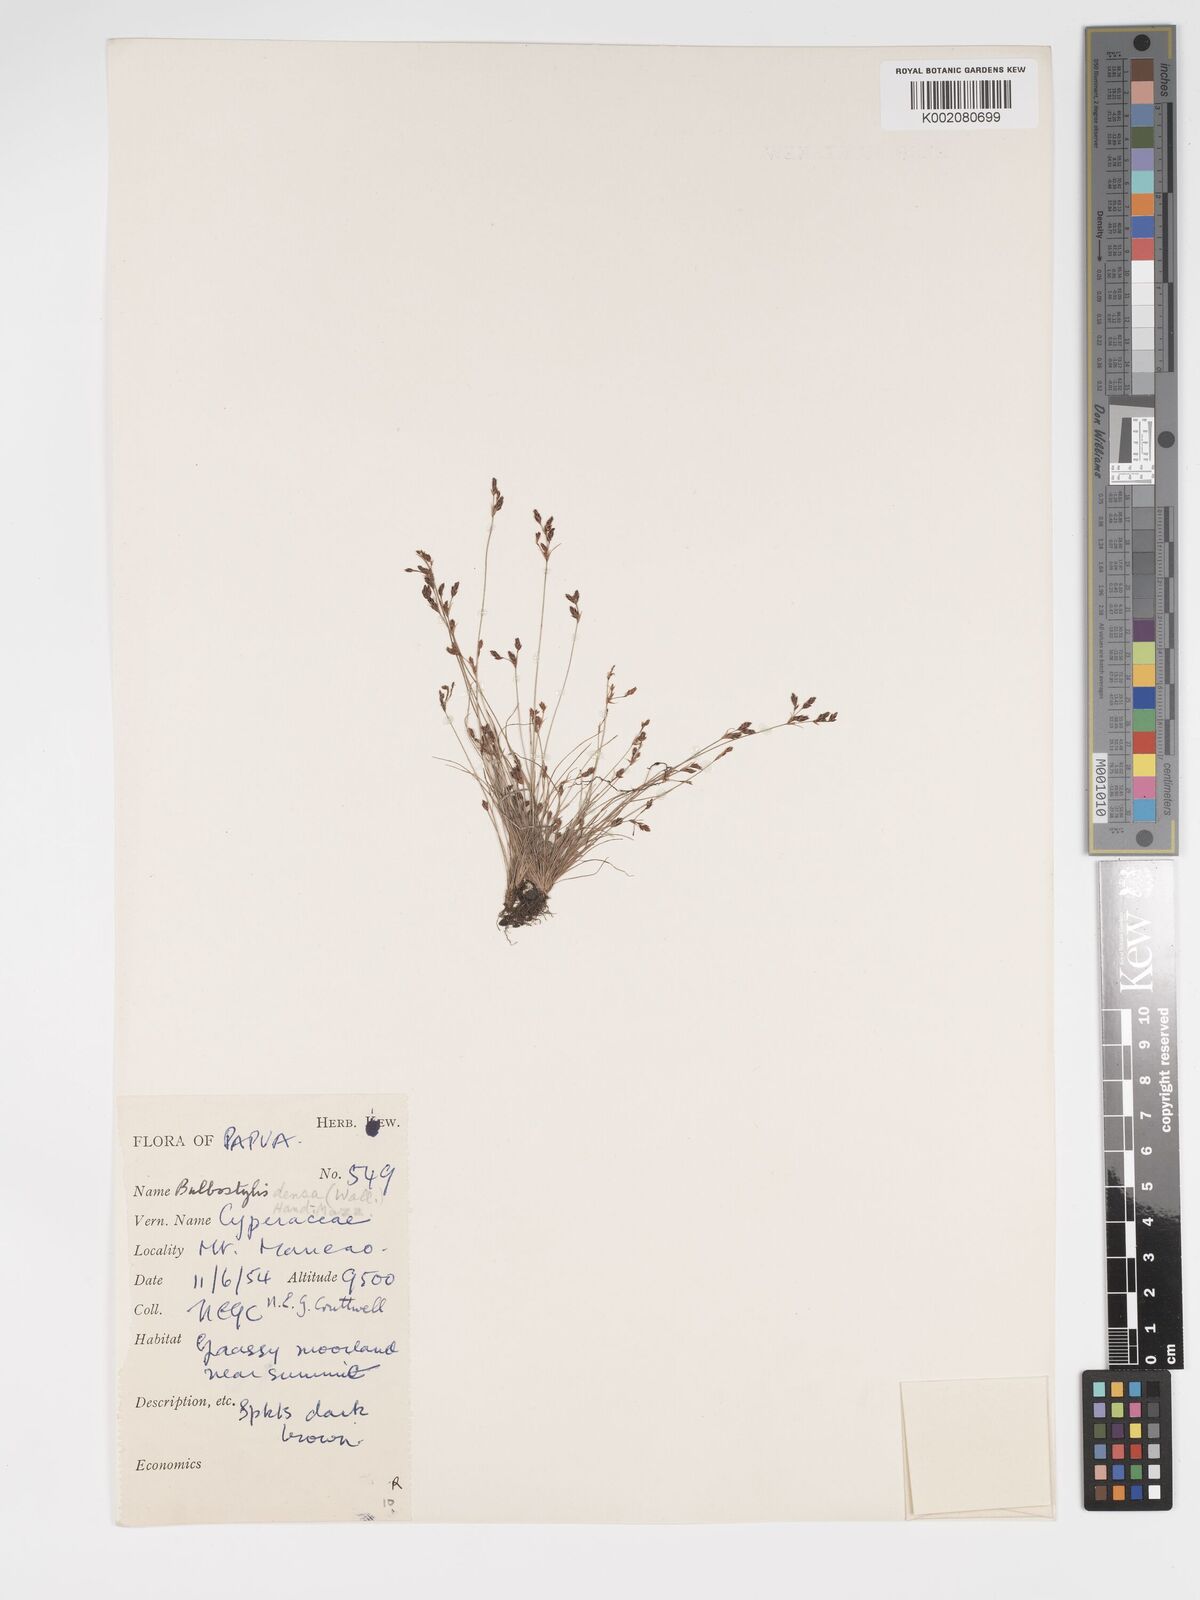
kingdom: Plantae
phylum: Tracheophyta
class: Liliopsida
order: Poales
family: Cyperaceae
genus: Bulbostylis
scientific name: Bulbostylis densa
